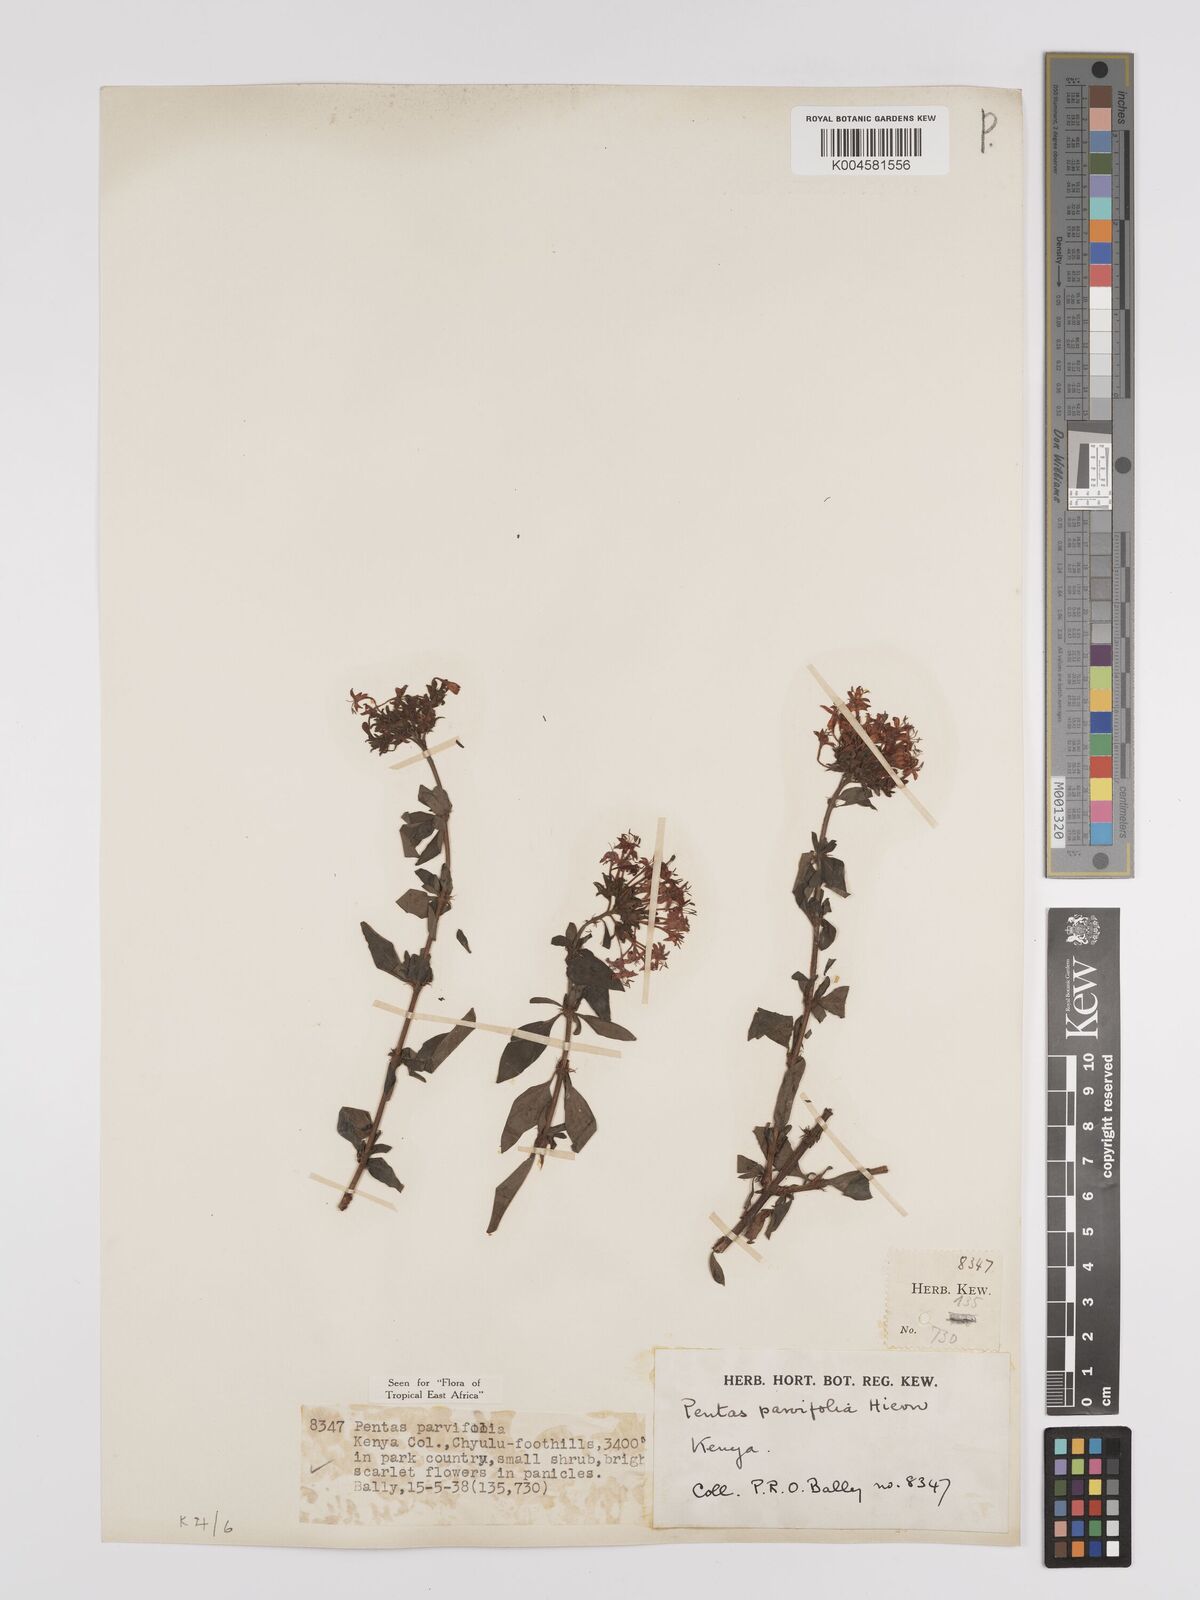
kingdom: Plantae
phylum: Tracheophyta
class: Magnoliopsida
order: Gentianales
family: Rubiaceae
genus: Rhodopentas
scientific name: Rhodopentas parvifolia
